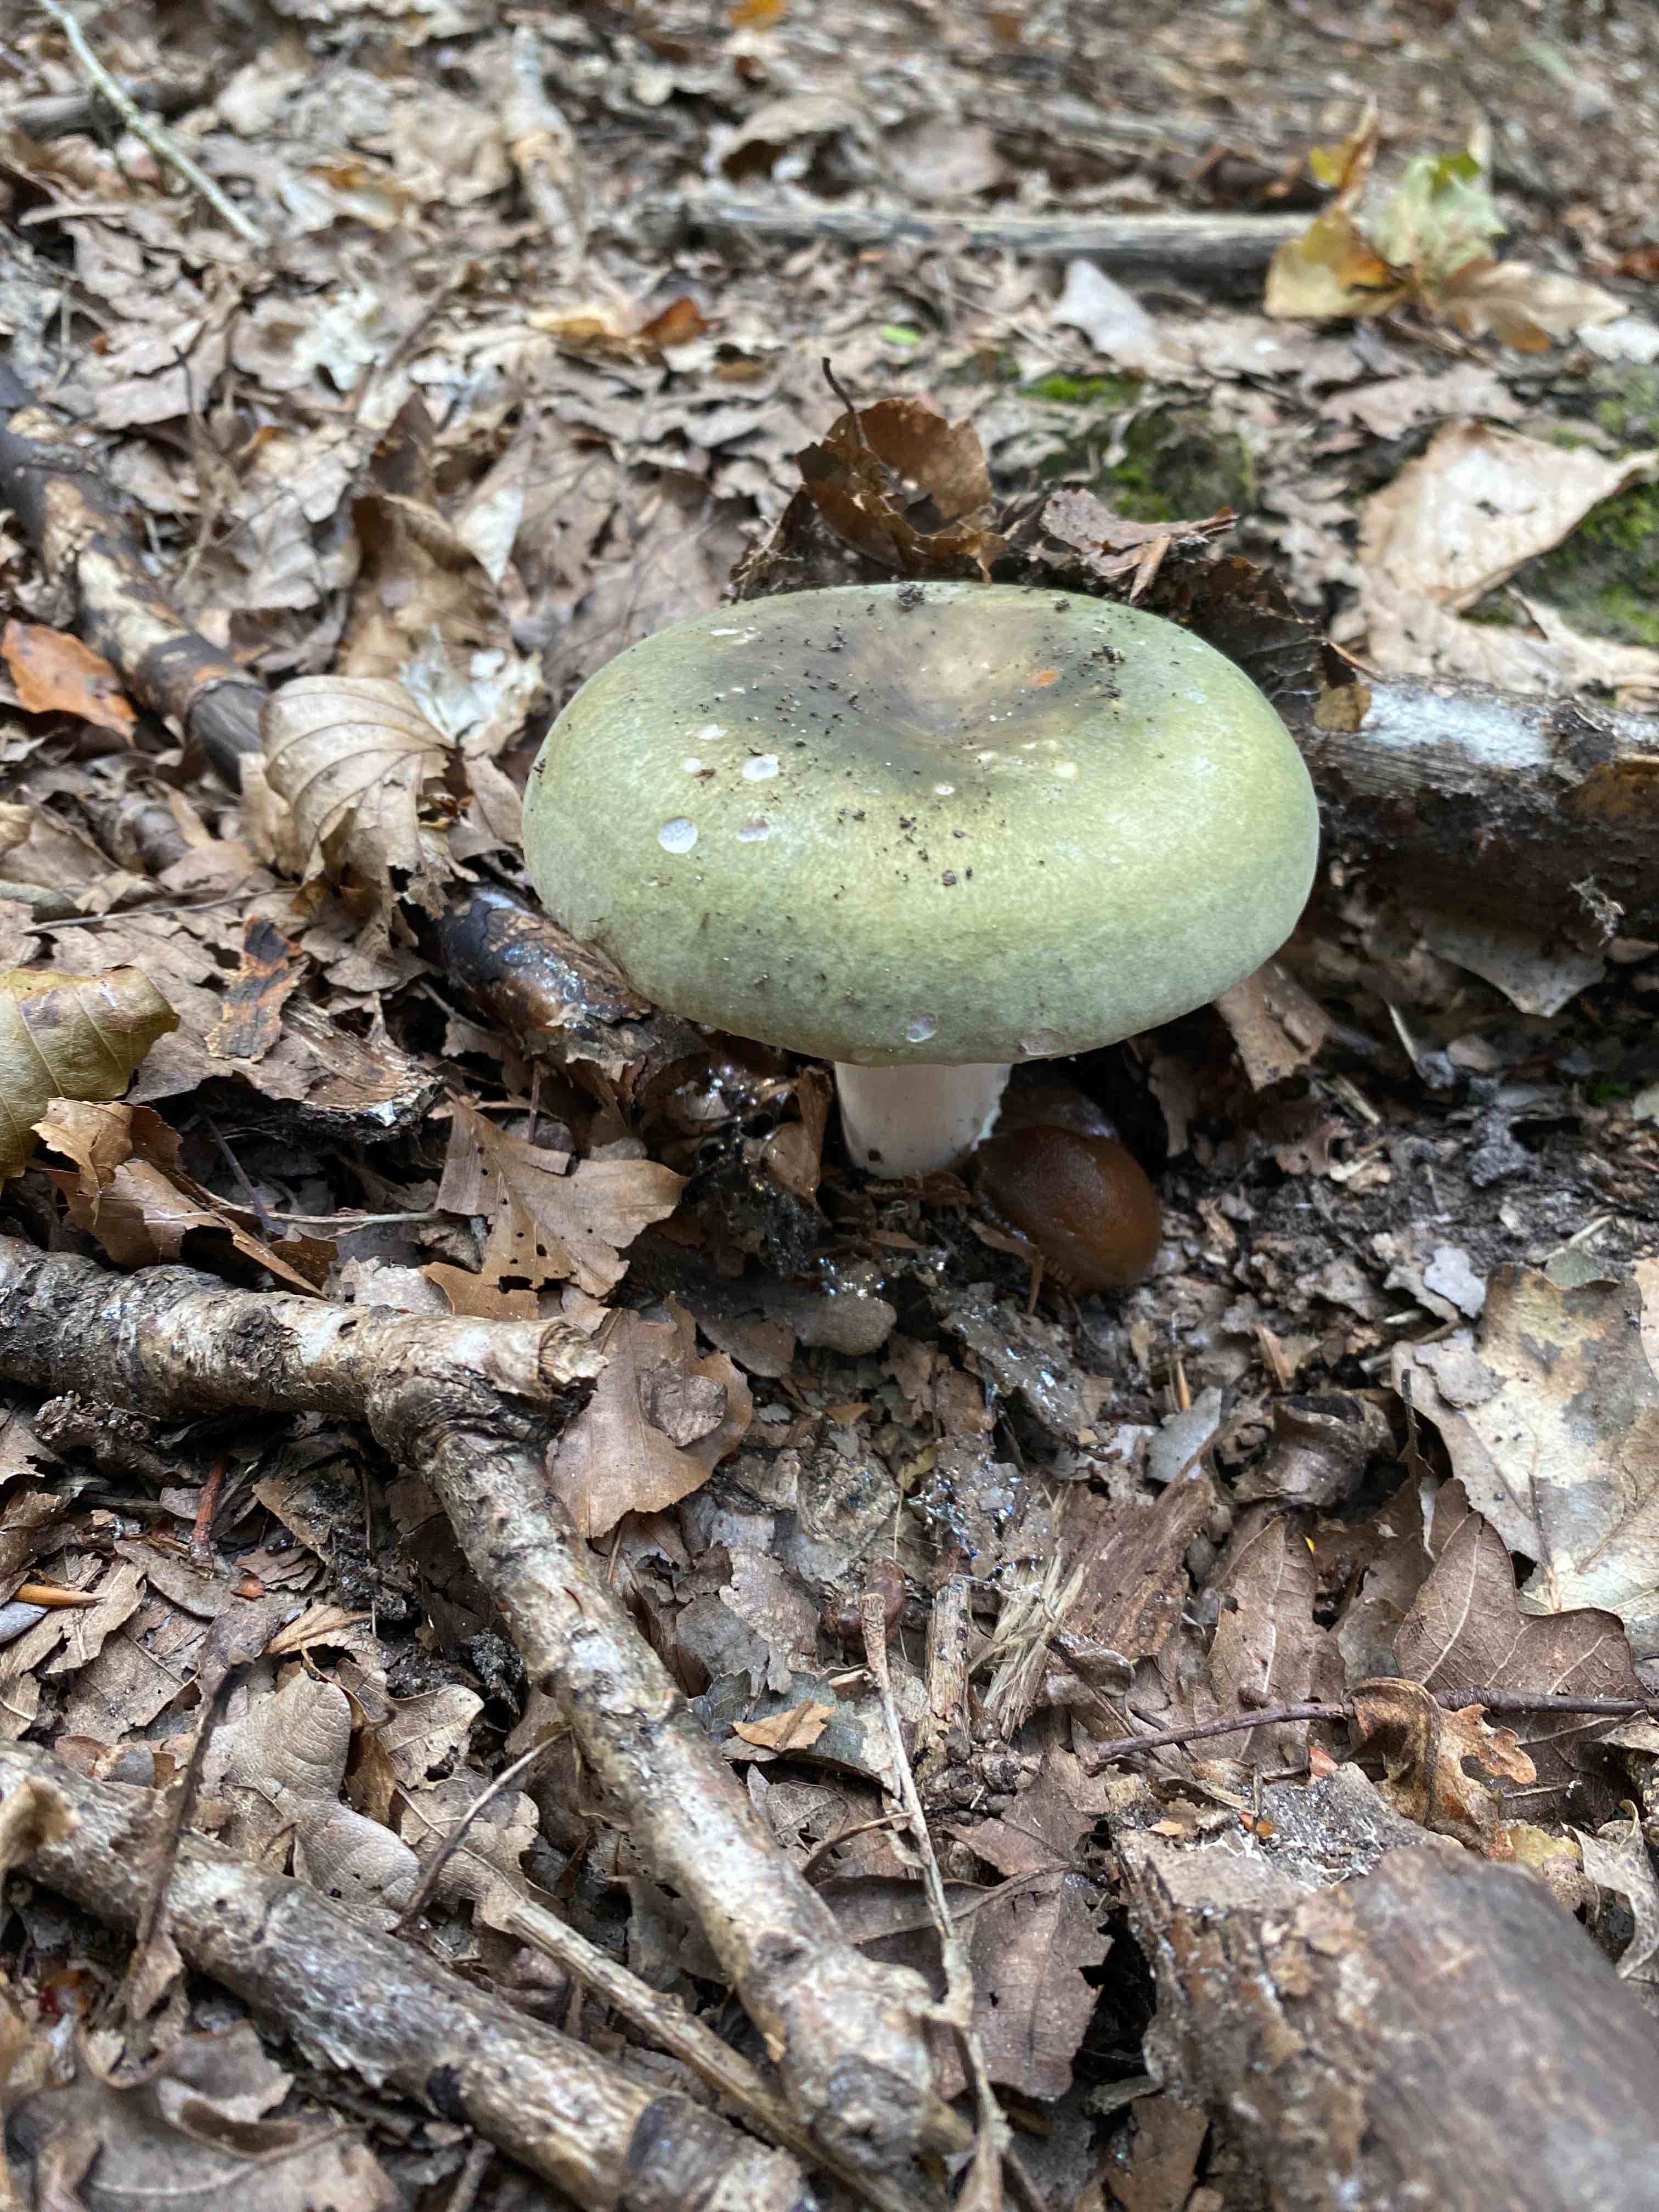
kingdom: Fungi
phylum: Basidiomycota
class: Agaricomycetes
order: Russulales
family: Russulaceae
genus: Russula
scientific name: Russula
